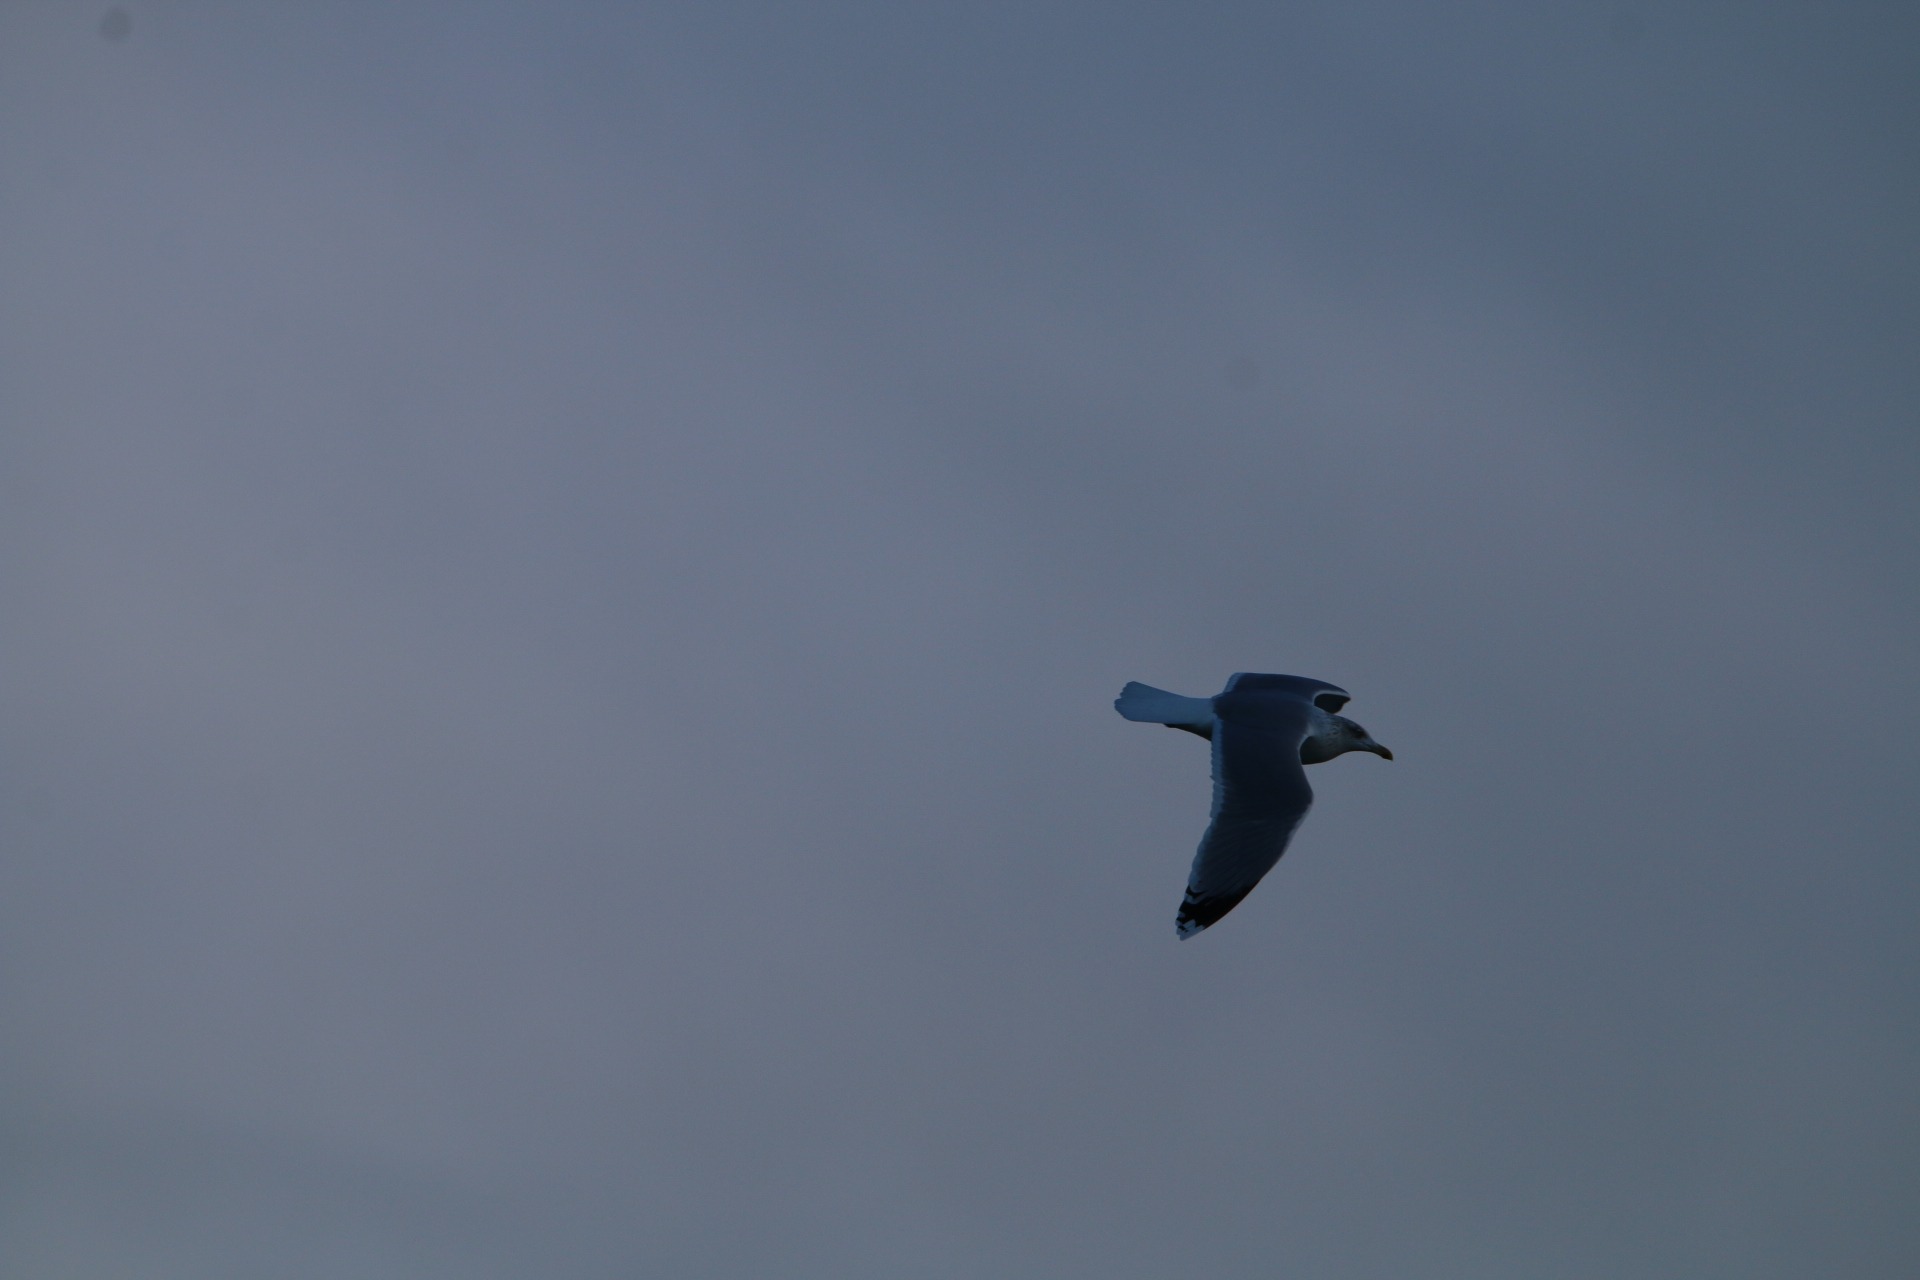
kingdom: Animalia
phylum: Chordata
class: Aves
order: Charadriiformes
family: Laridae
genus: Larus
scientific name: Larus argentatus
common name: Sølvmåge
